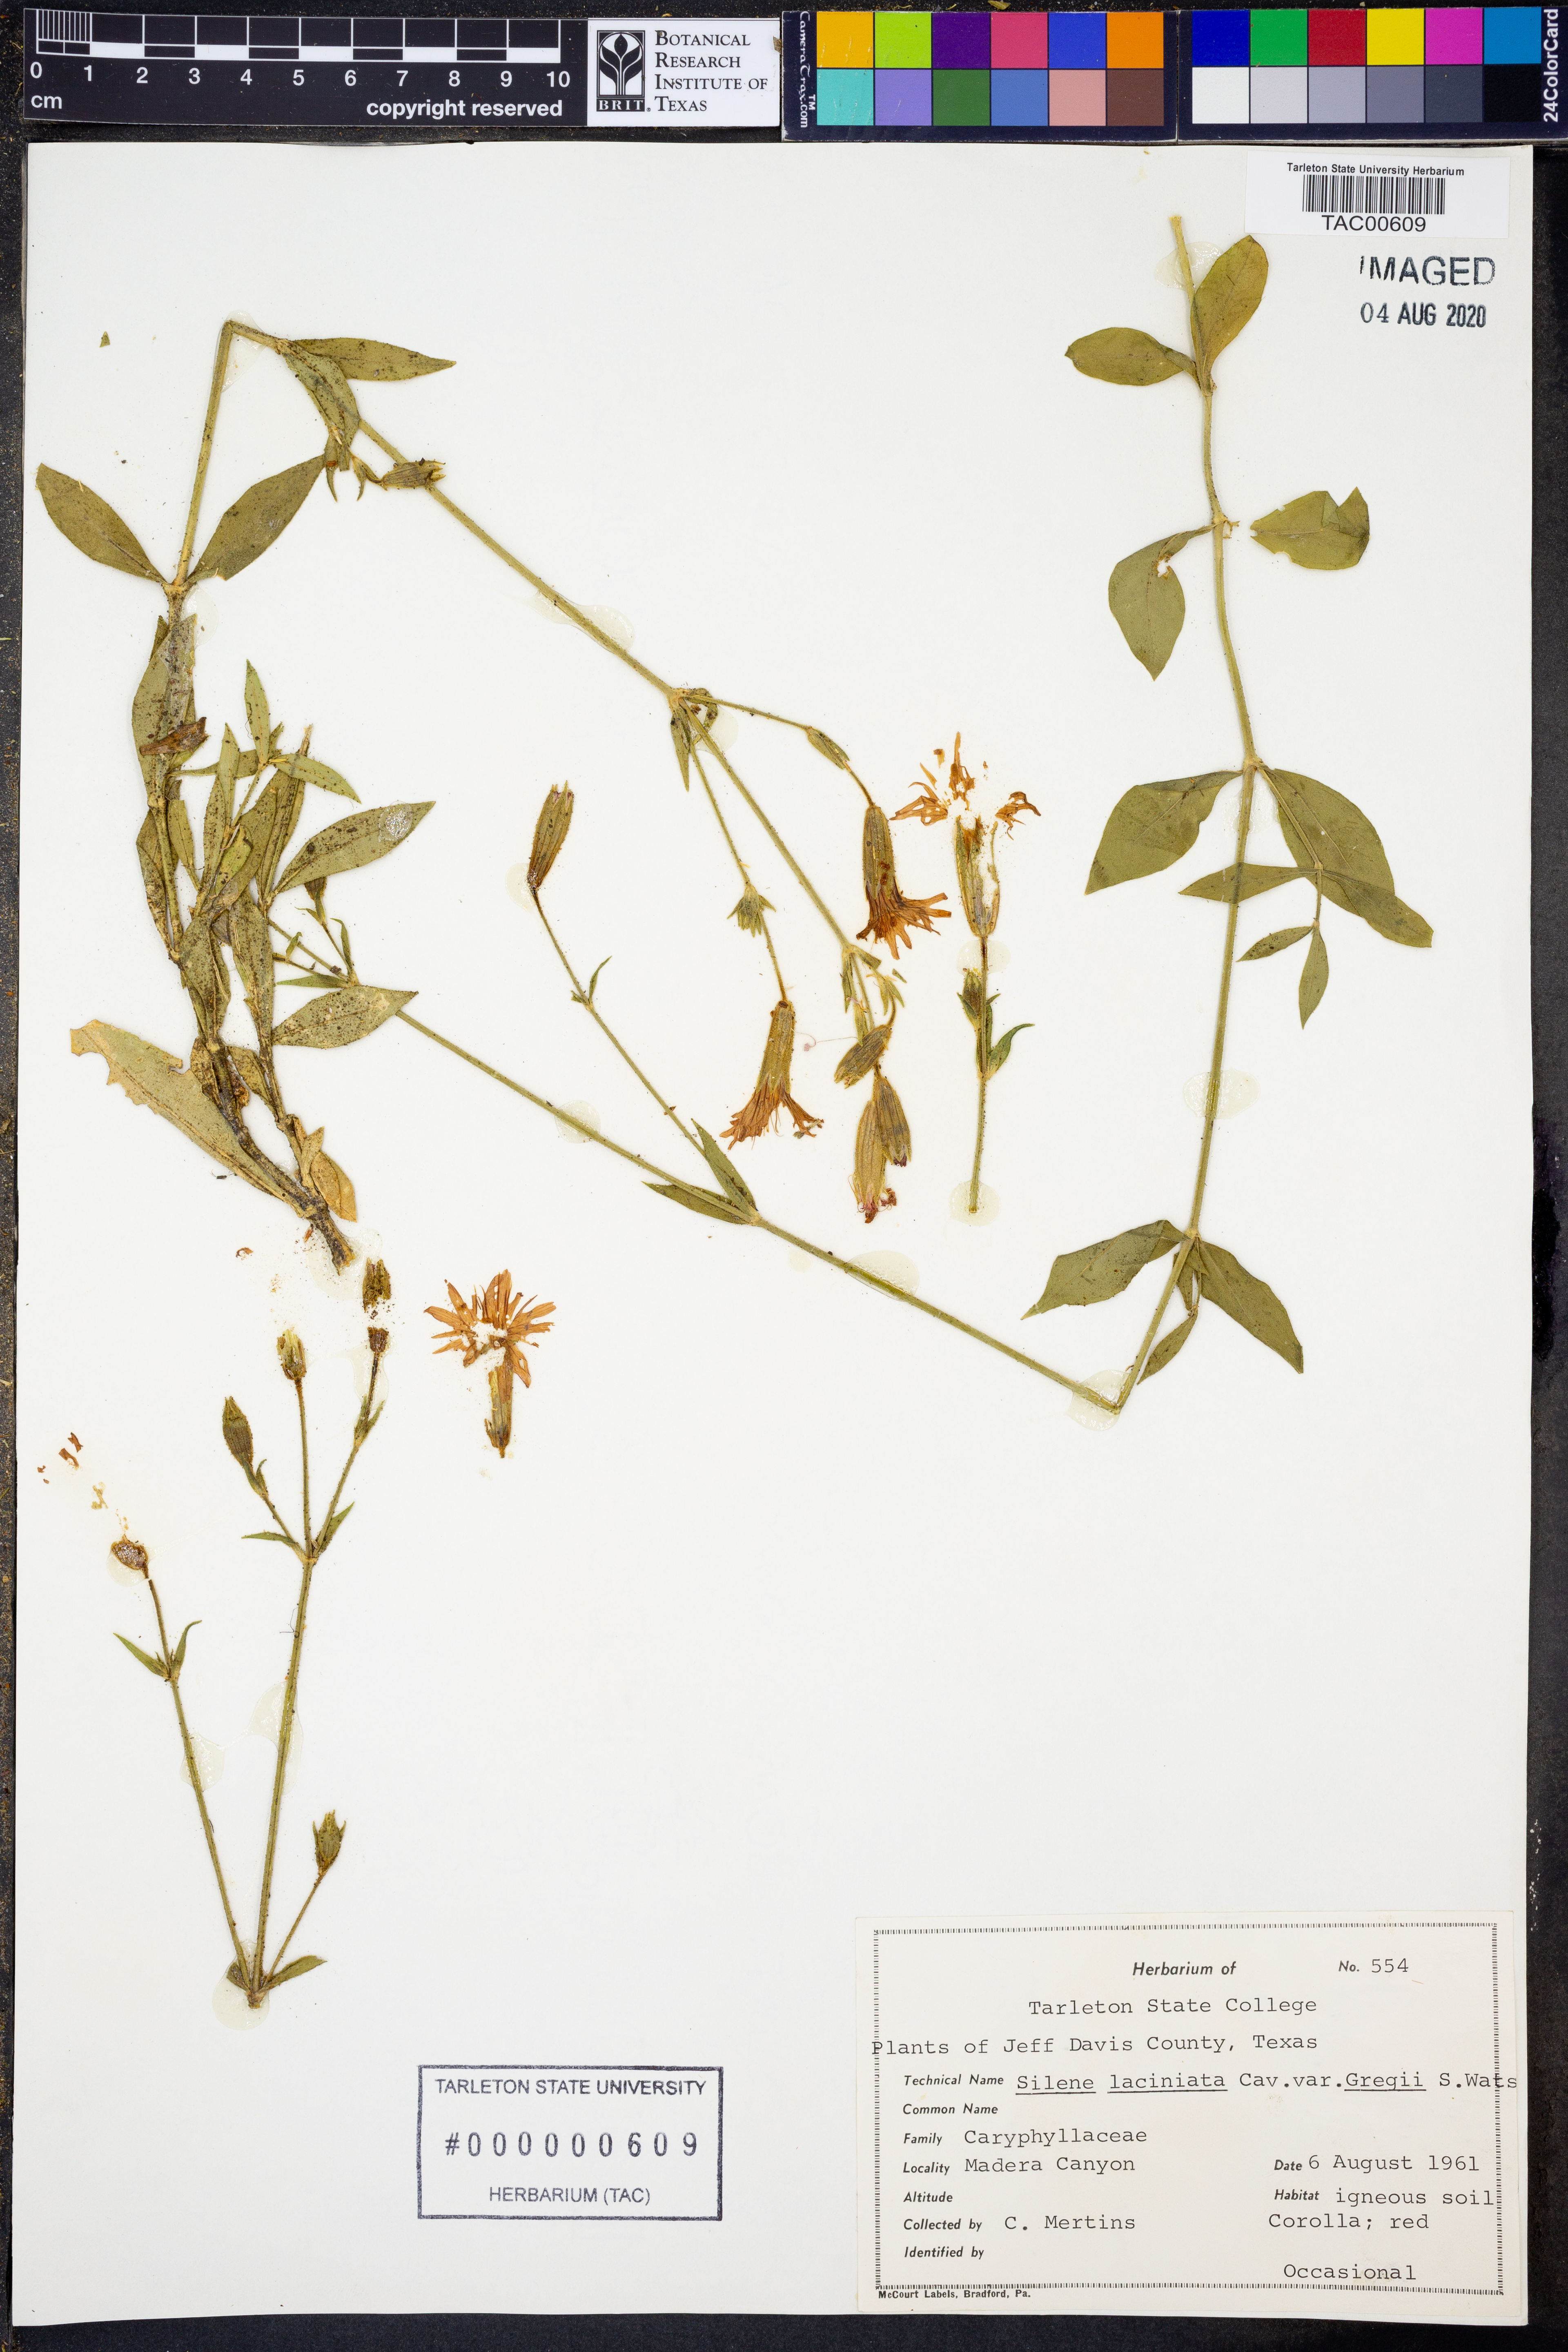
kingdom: Plantae
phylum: Tracheophyta
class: Magnoliopsida
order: Caryophyllales
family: Caryophyllaceae
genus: Silene
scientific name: Silene laciniata
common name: Indian-pink
